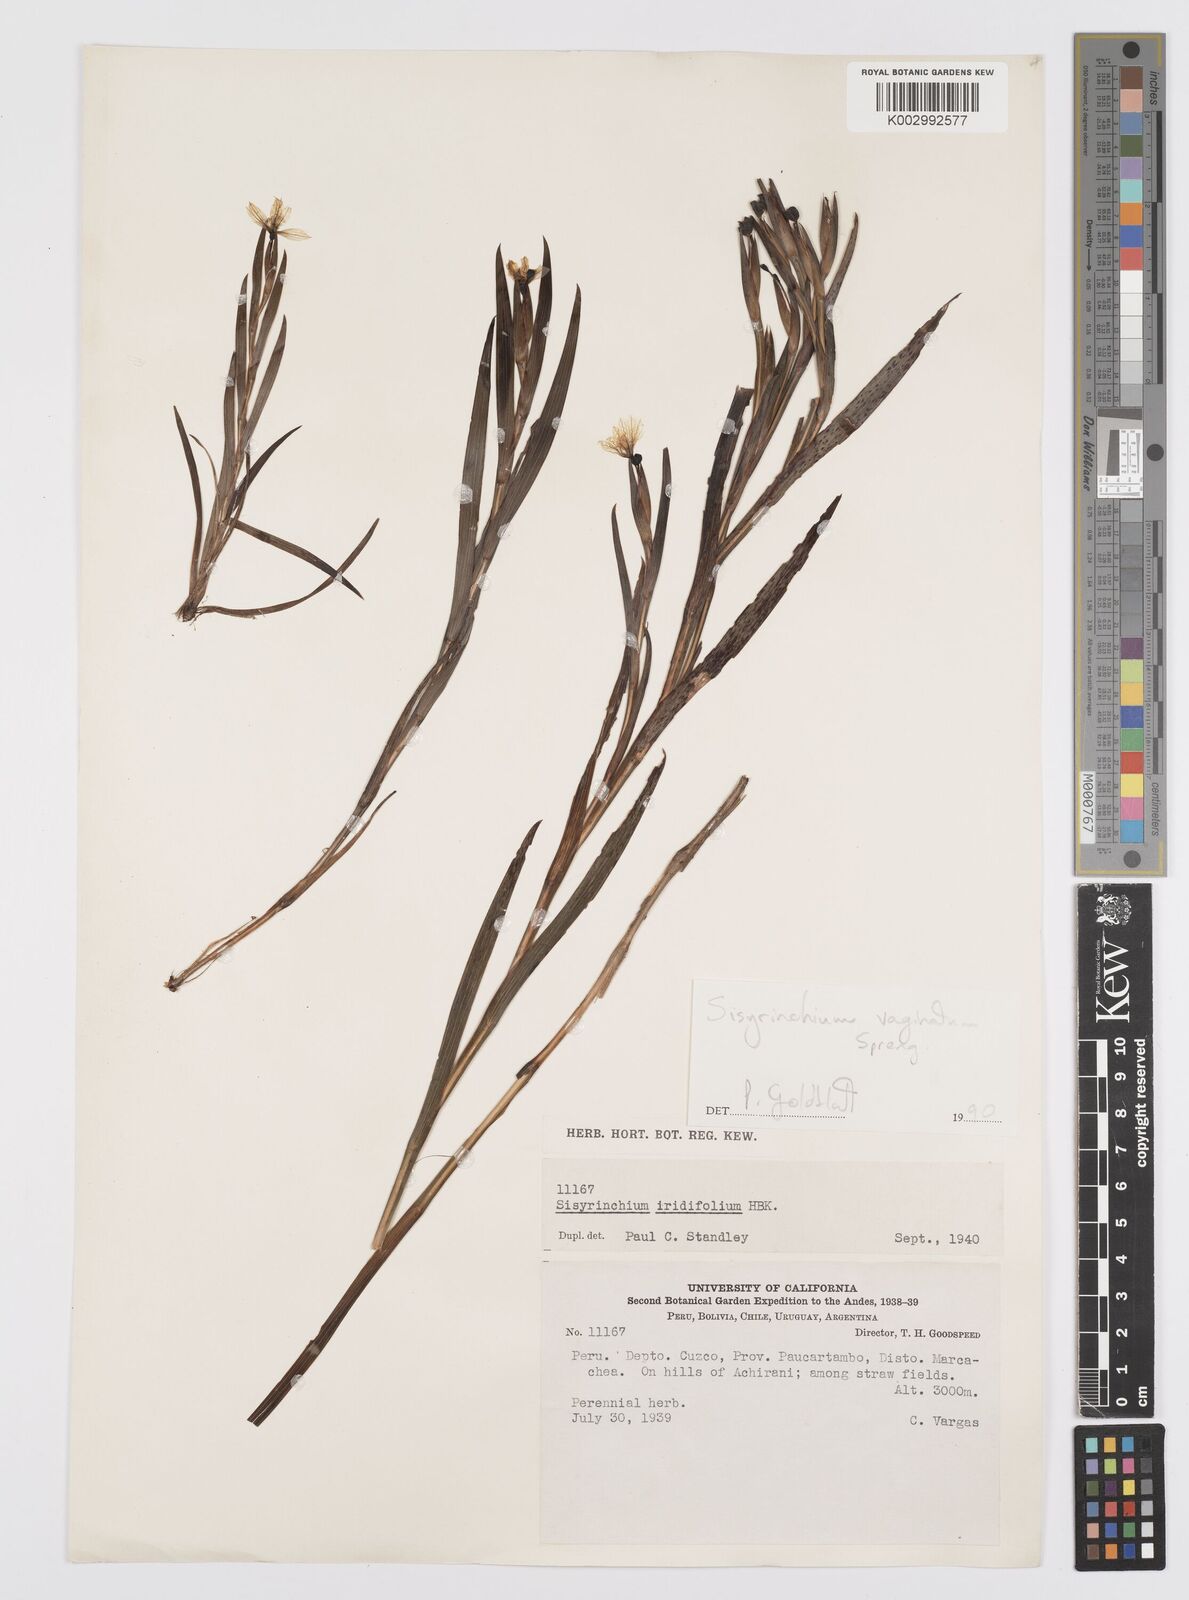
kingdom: Plantae
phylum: Tracheophyta
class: Liliopsida
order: Asparagales
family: Iridaceae
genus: Sisyrinchium
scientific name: Sisyrinchium vaginatum
